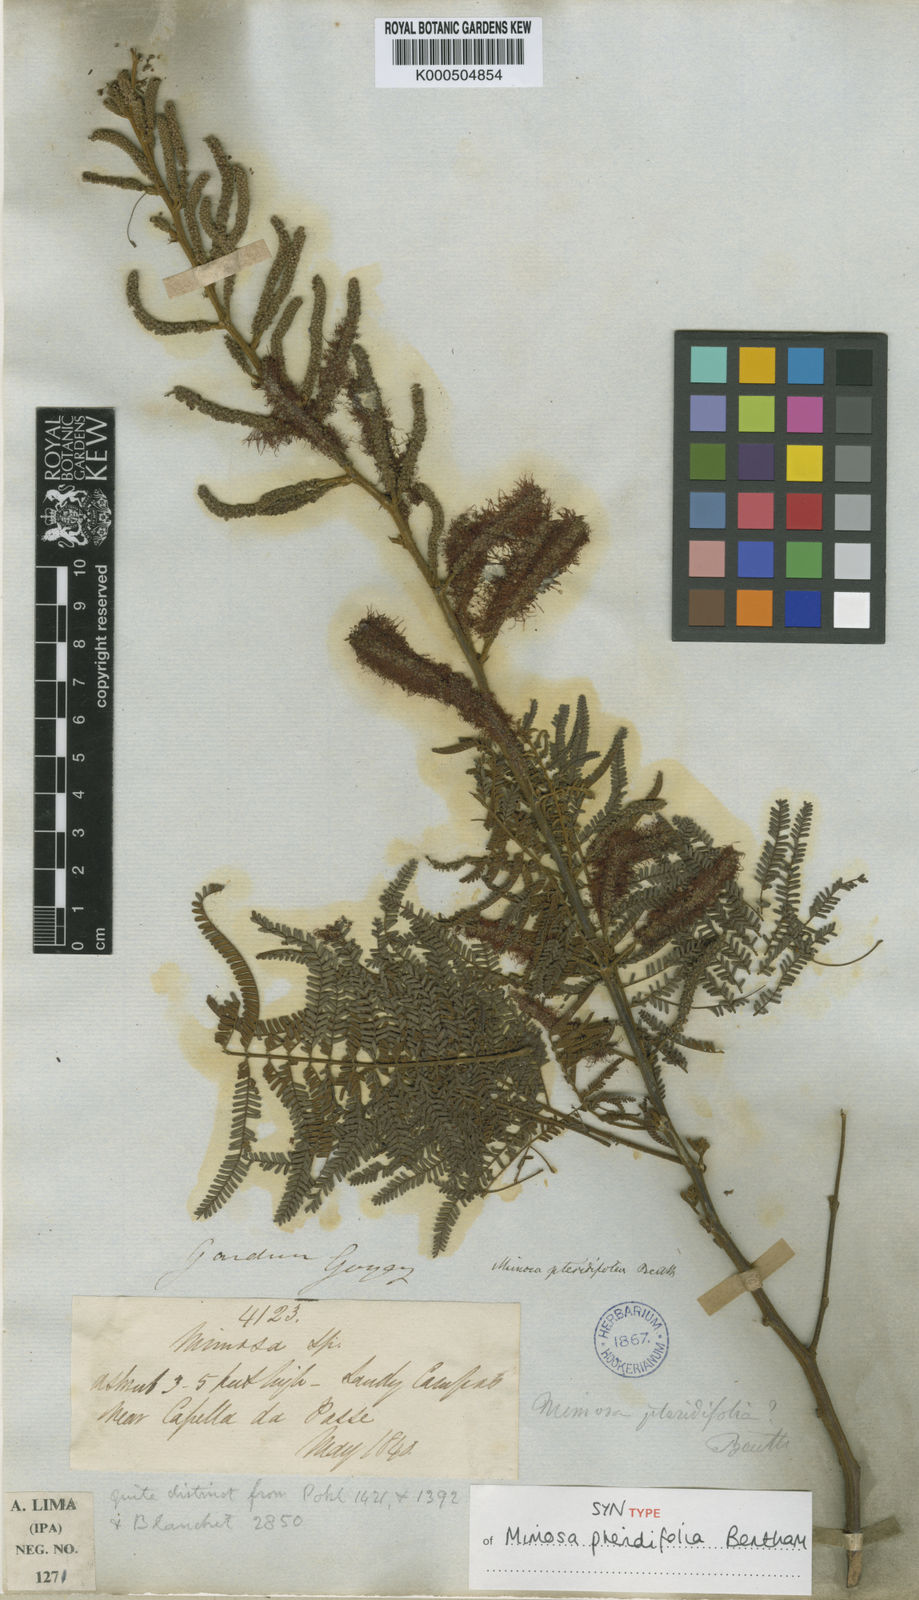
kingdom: Plantae
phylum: Tracheophyta
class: Magnoliopsida
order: Fabales
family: Fabaceae
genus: Mimosa
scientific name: Mimosa pteridifolia
